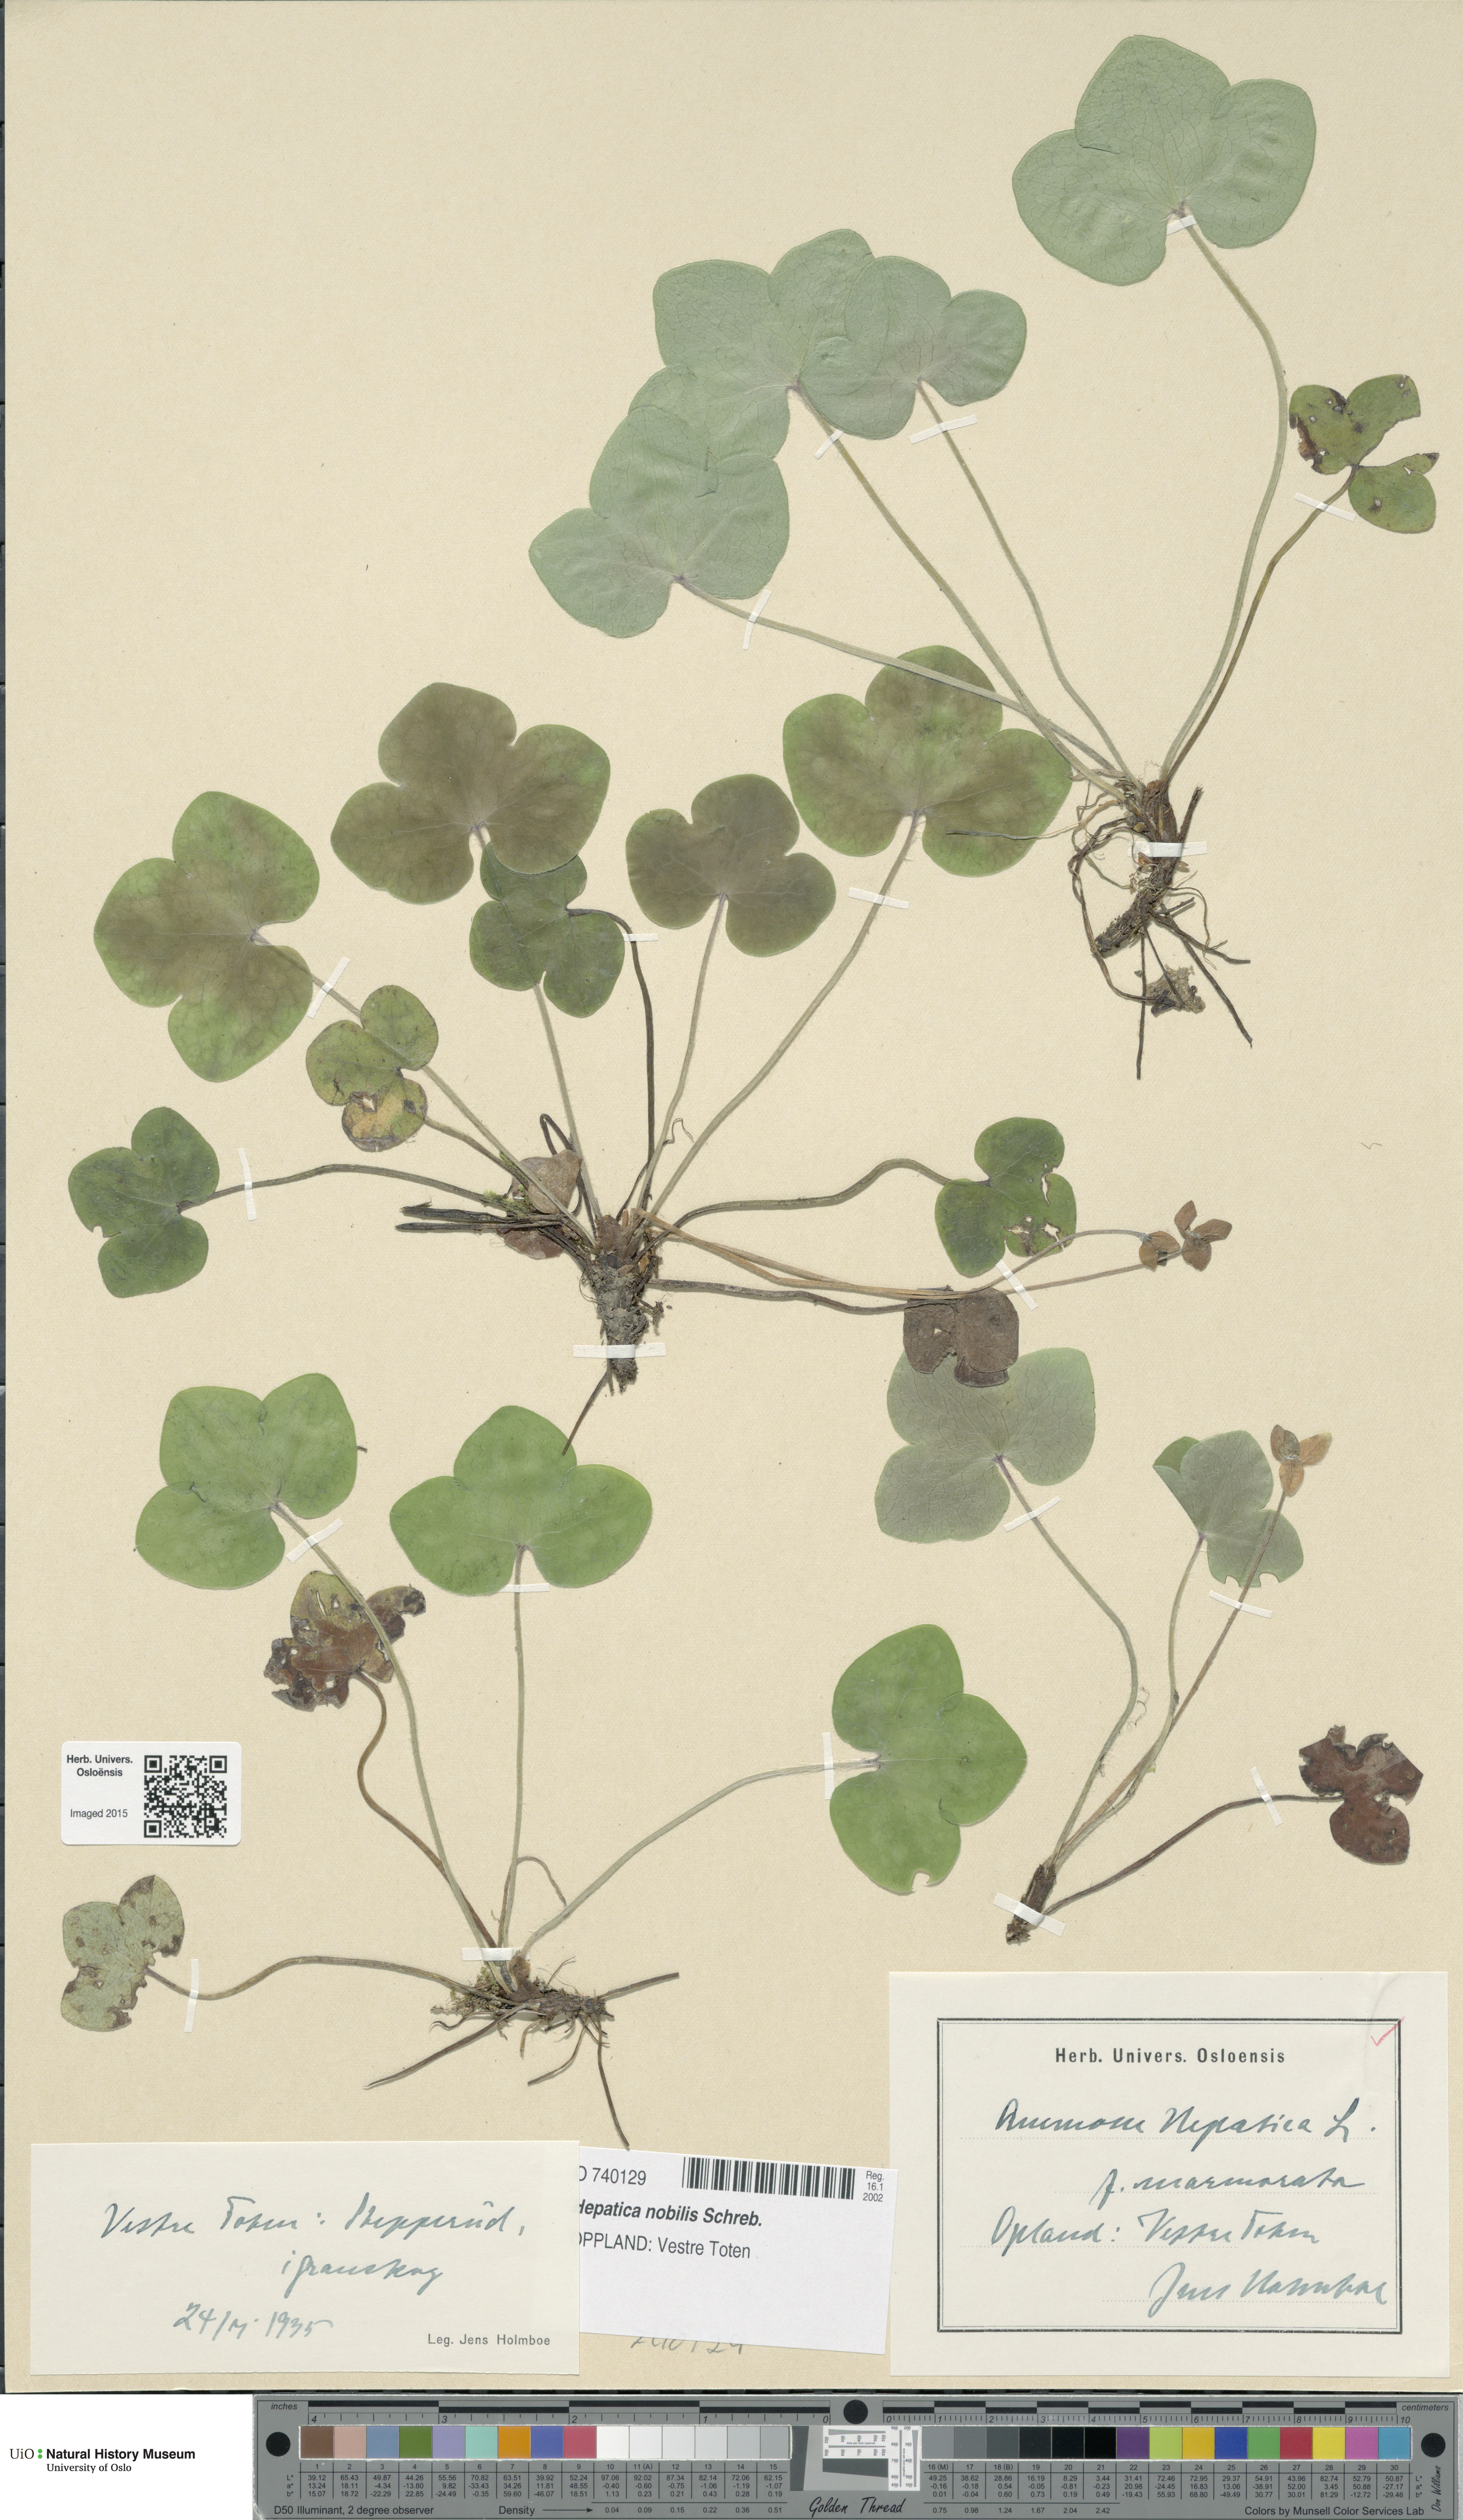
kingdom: Plantae
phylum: Tracheophyta
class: Magnoliopsida
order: Ranunculales
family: Ranunculaceae
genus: Hepatica
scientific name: Hepatica nobilis
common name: Liverleaf
